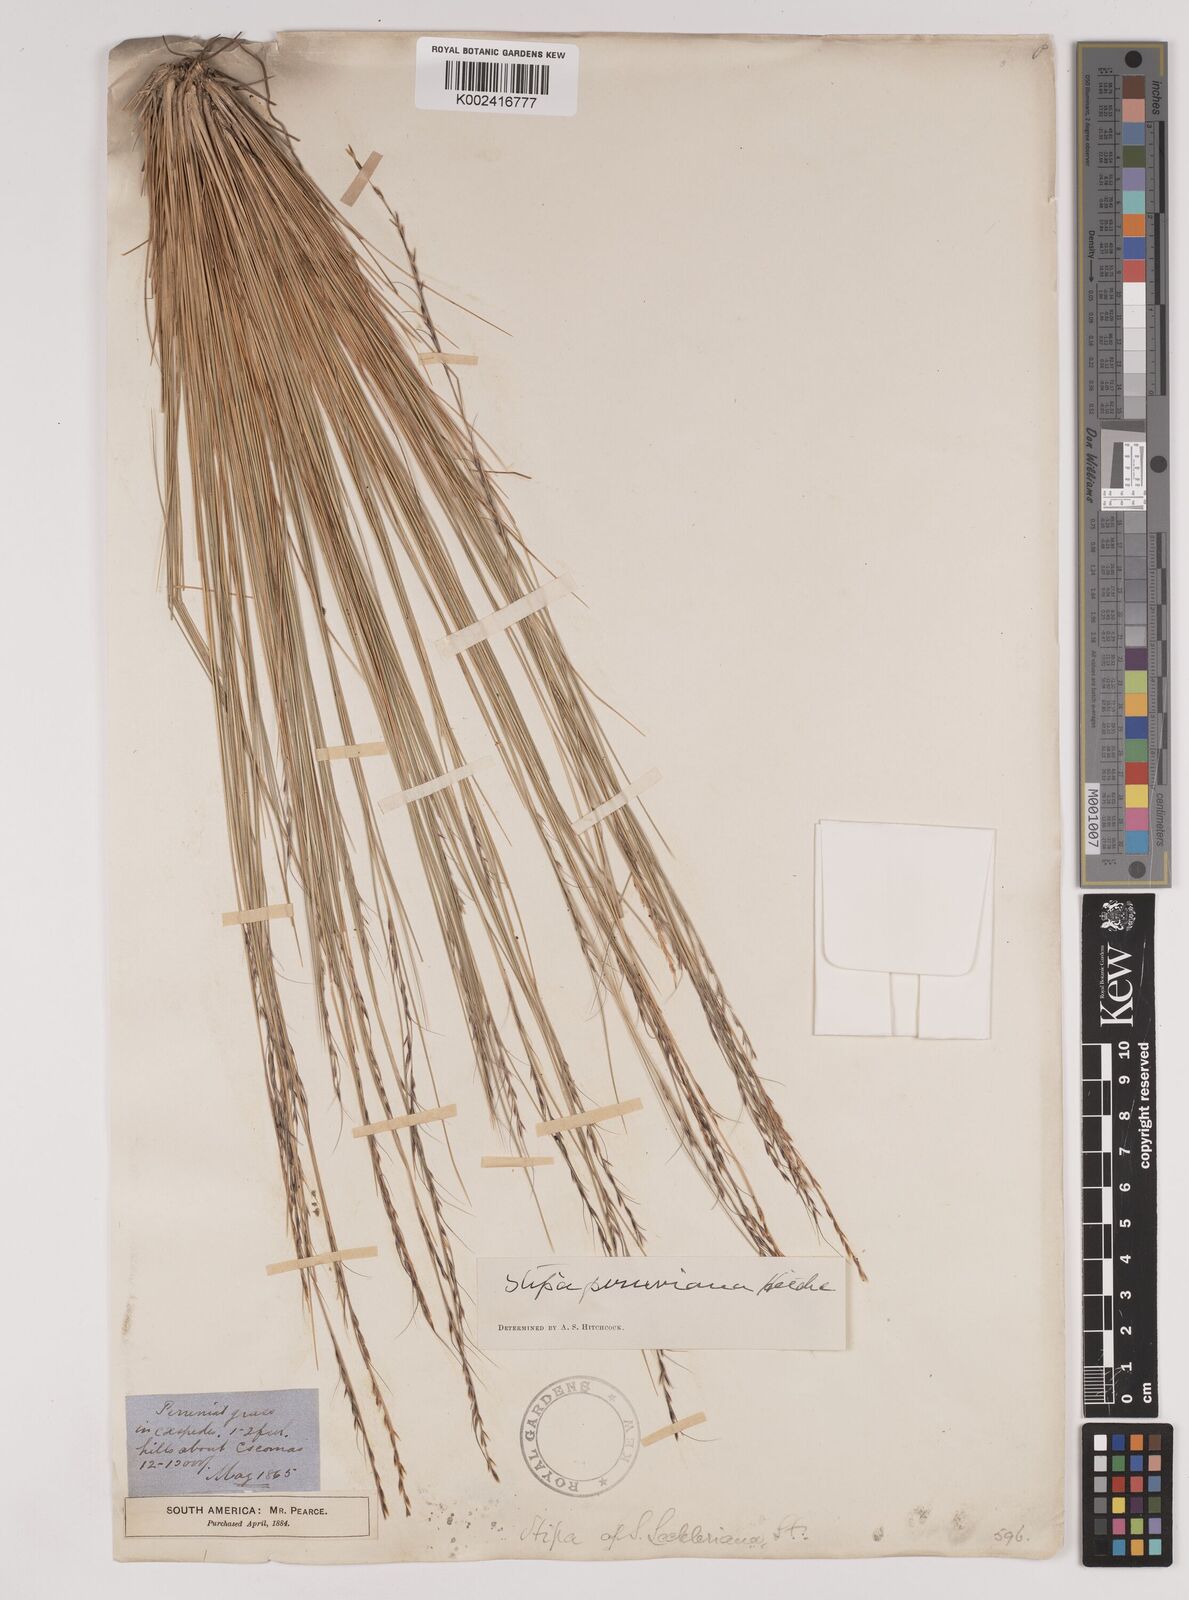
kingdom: Plantae
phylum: Tracheophyta
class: Liliopsida
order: Poales
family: Poaceae
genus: Stipa
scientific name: Stipa rigidiseta
